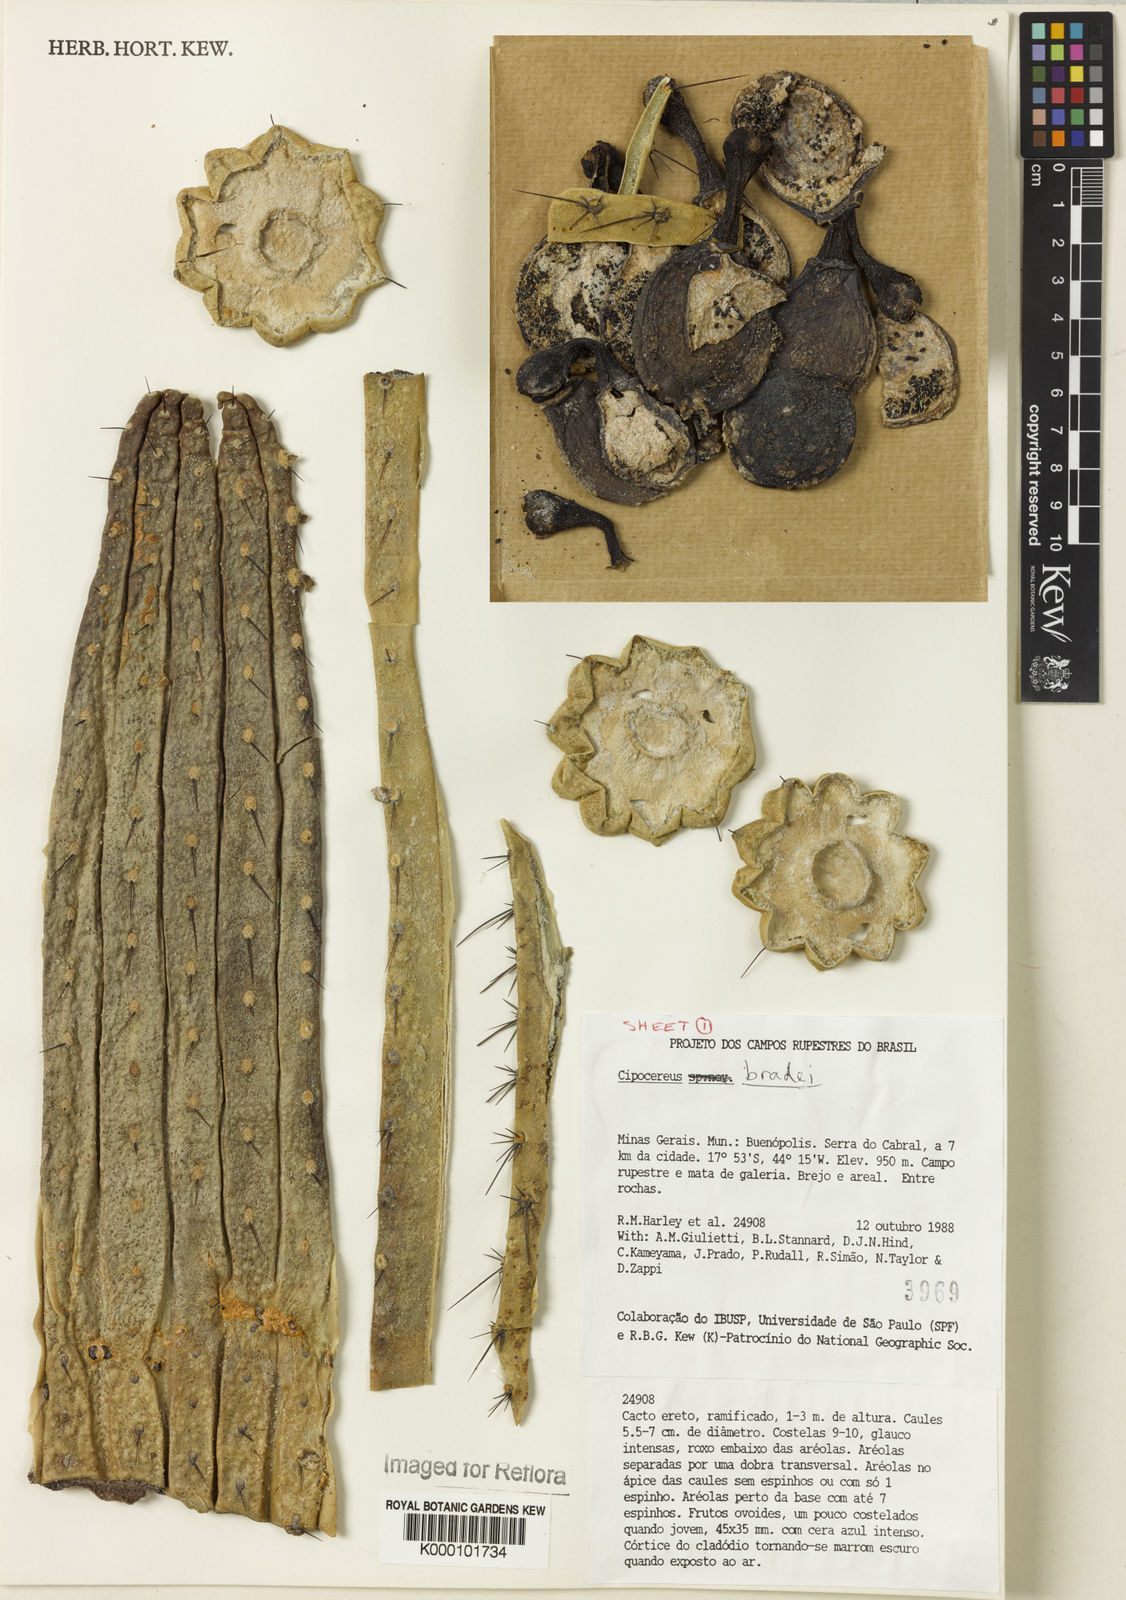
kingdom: Plantae
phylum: Tracheophyta
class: Magnoliopsida
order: Caryophyllales
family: Cactaceae
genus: Cipocereus
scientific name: Cipocereus bradei
